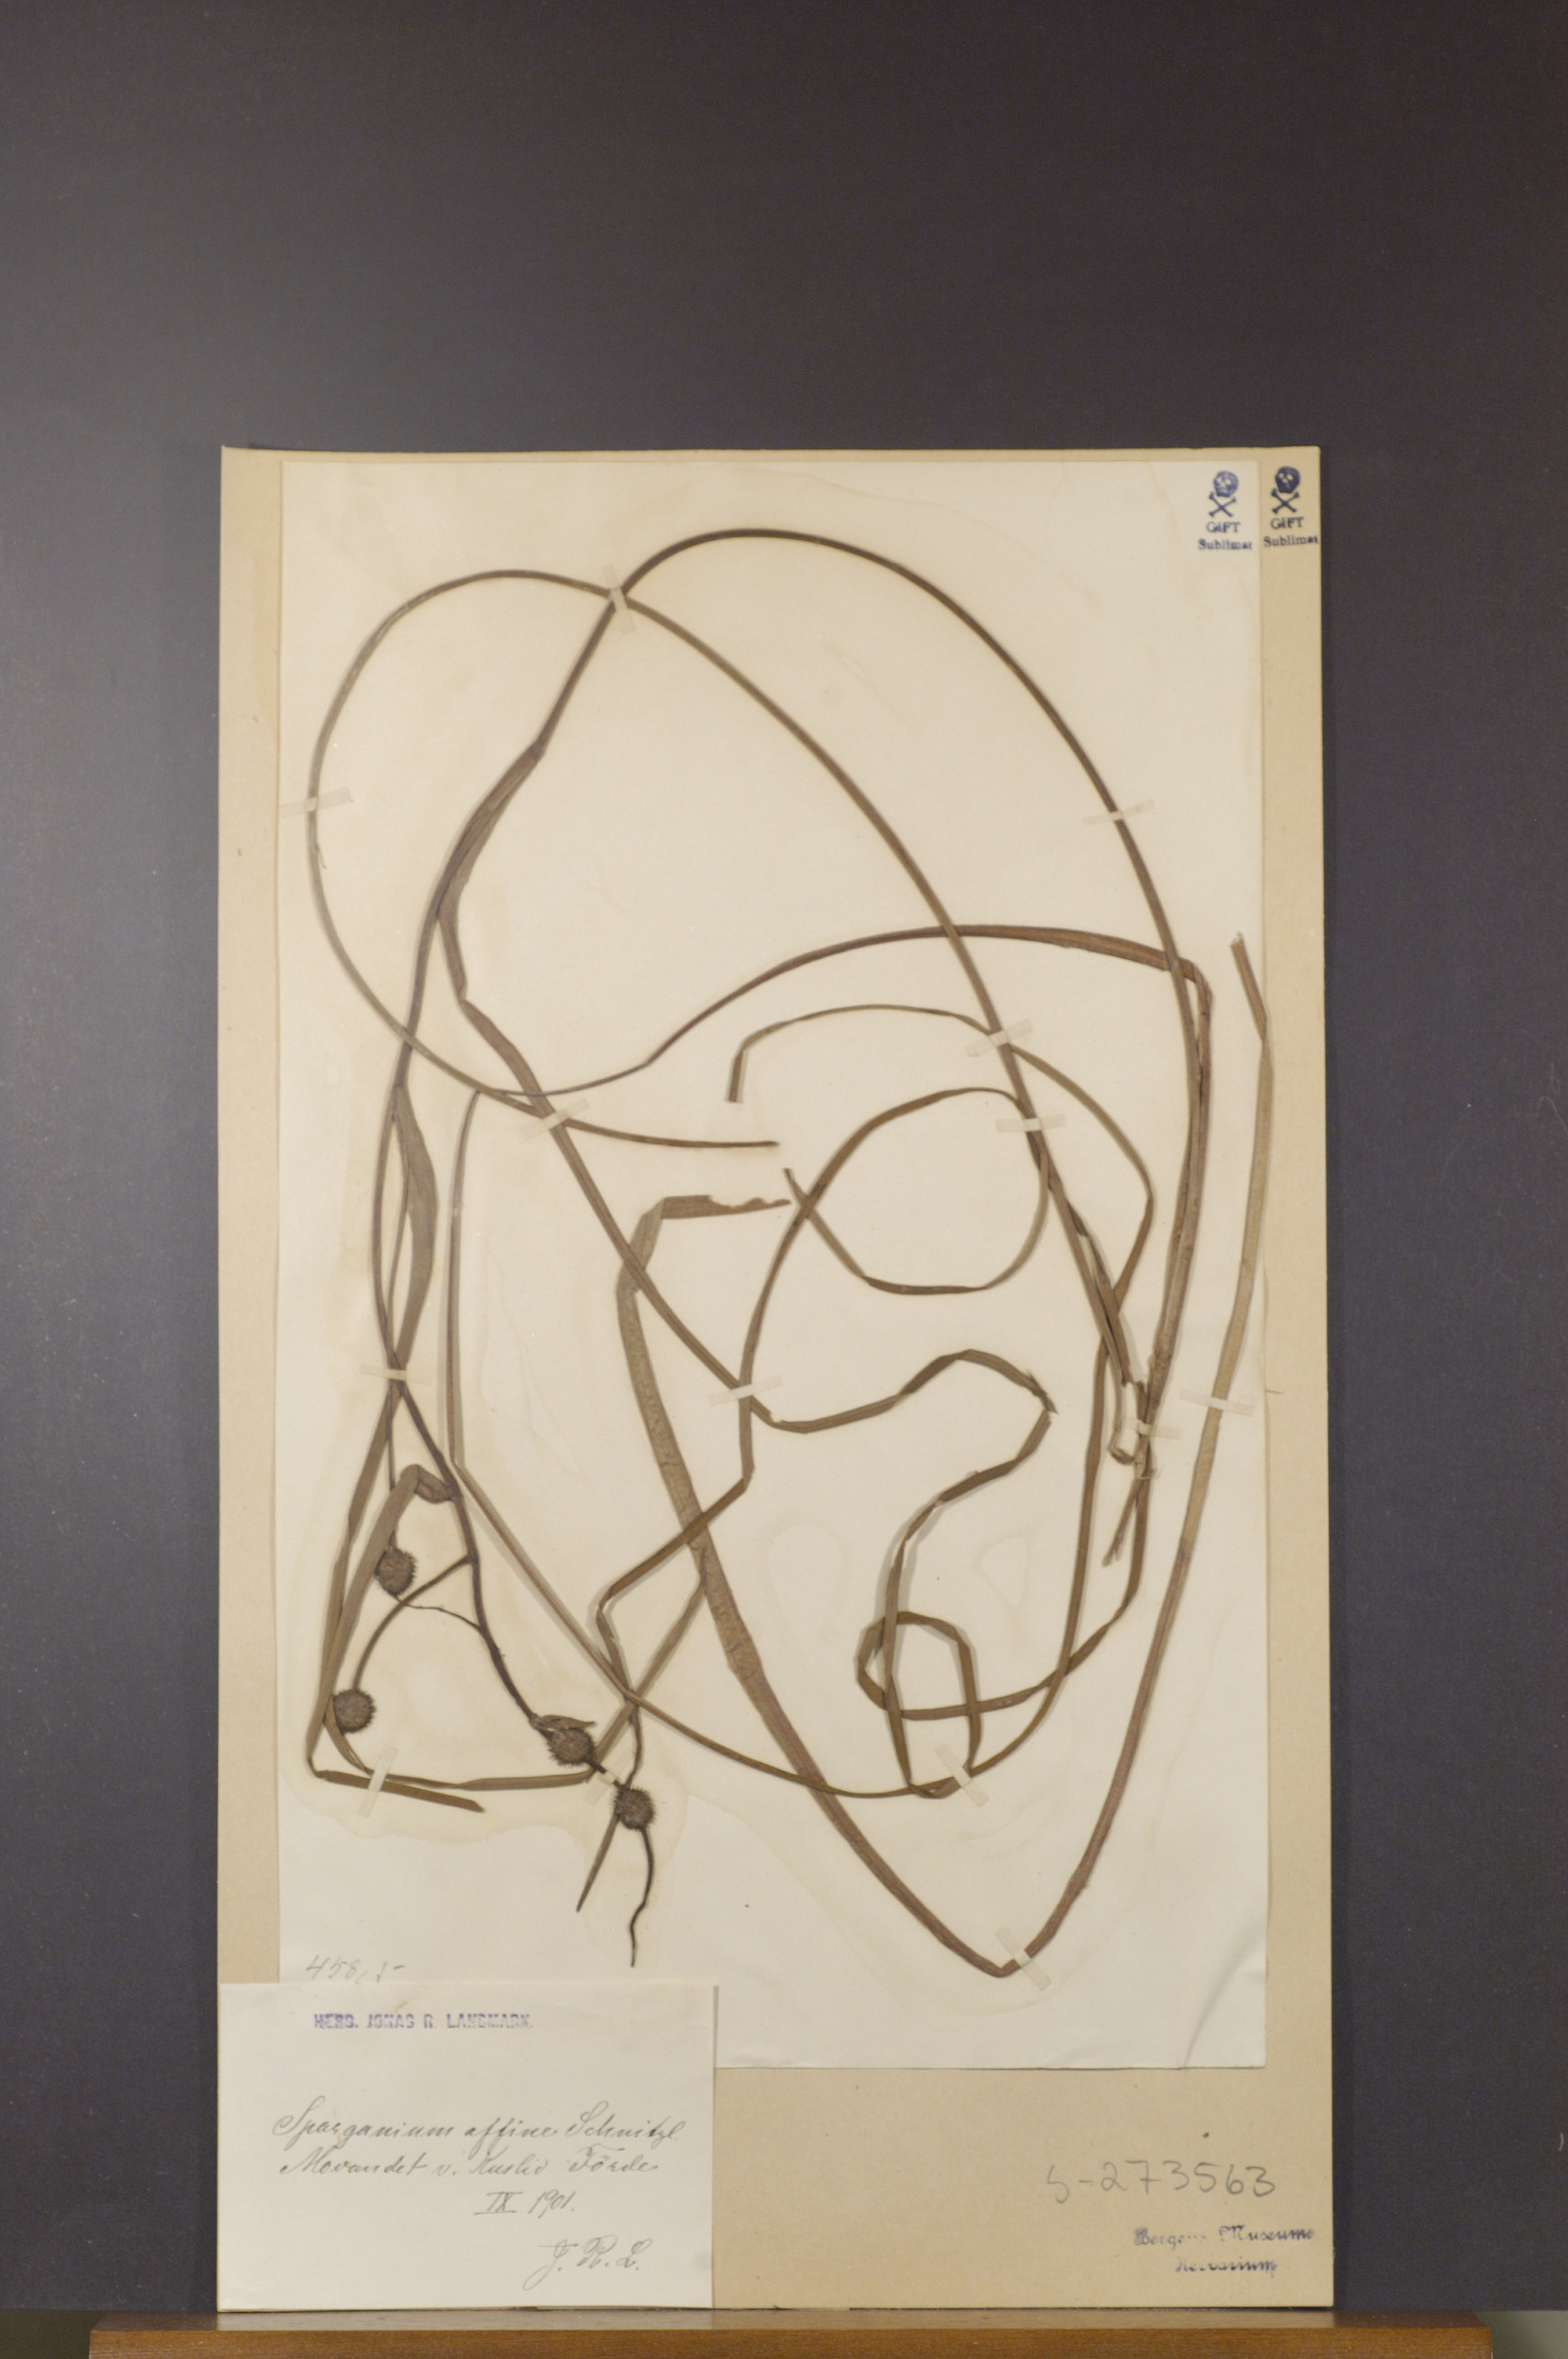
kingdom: Plantae
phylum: Tracheophyta
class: Liliopsida
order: Poales
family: Typhaceae
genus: Sparganium
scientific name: Sparganium angustifolium
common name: Floating bur-reed
